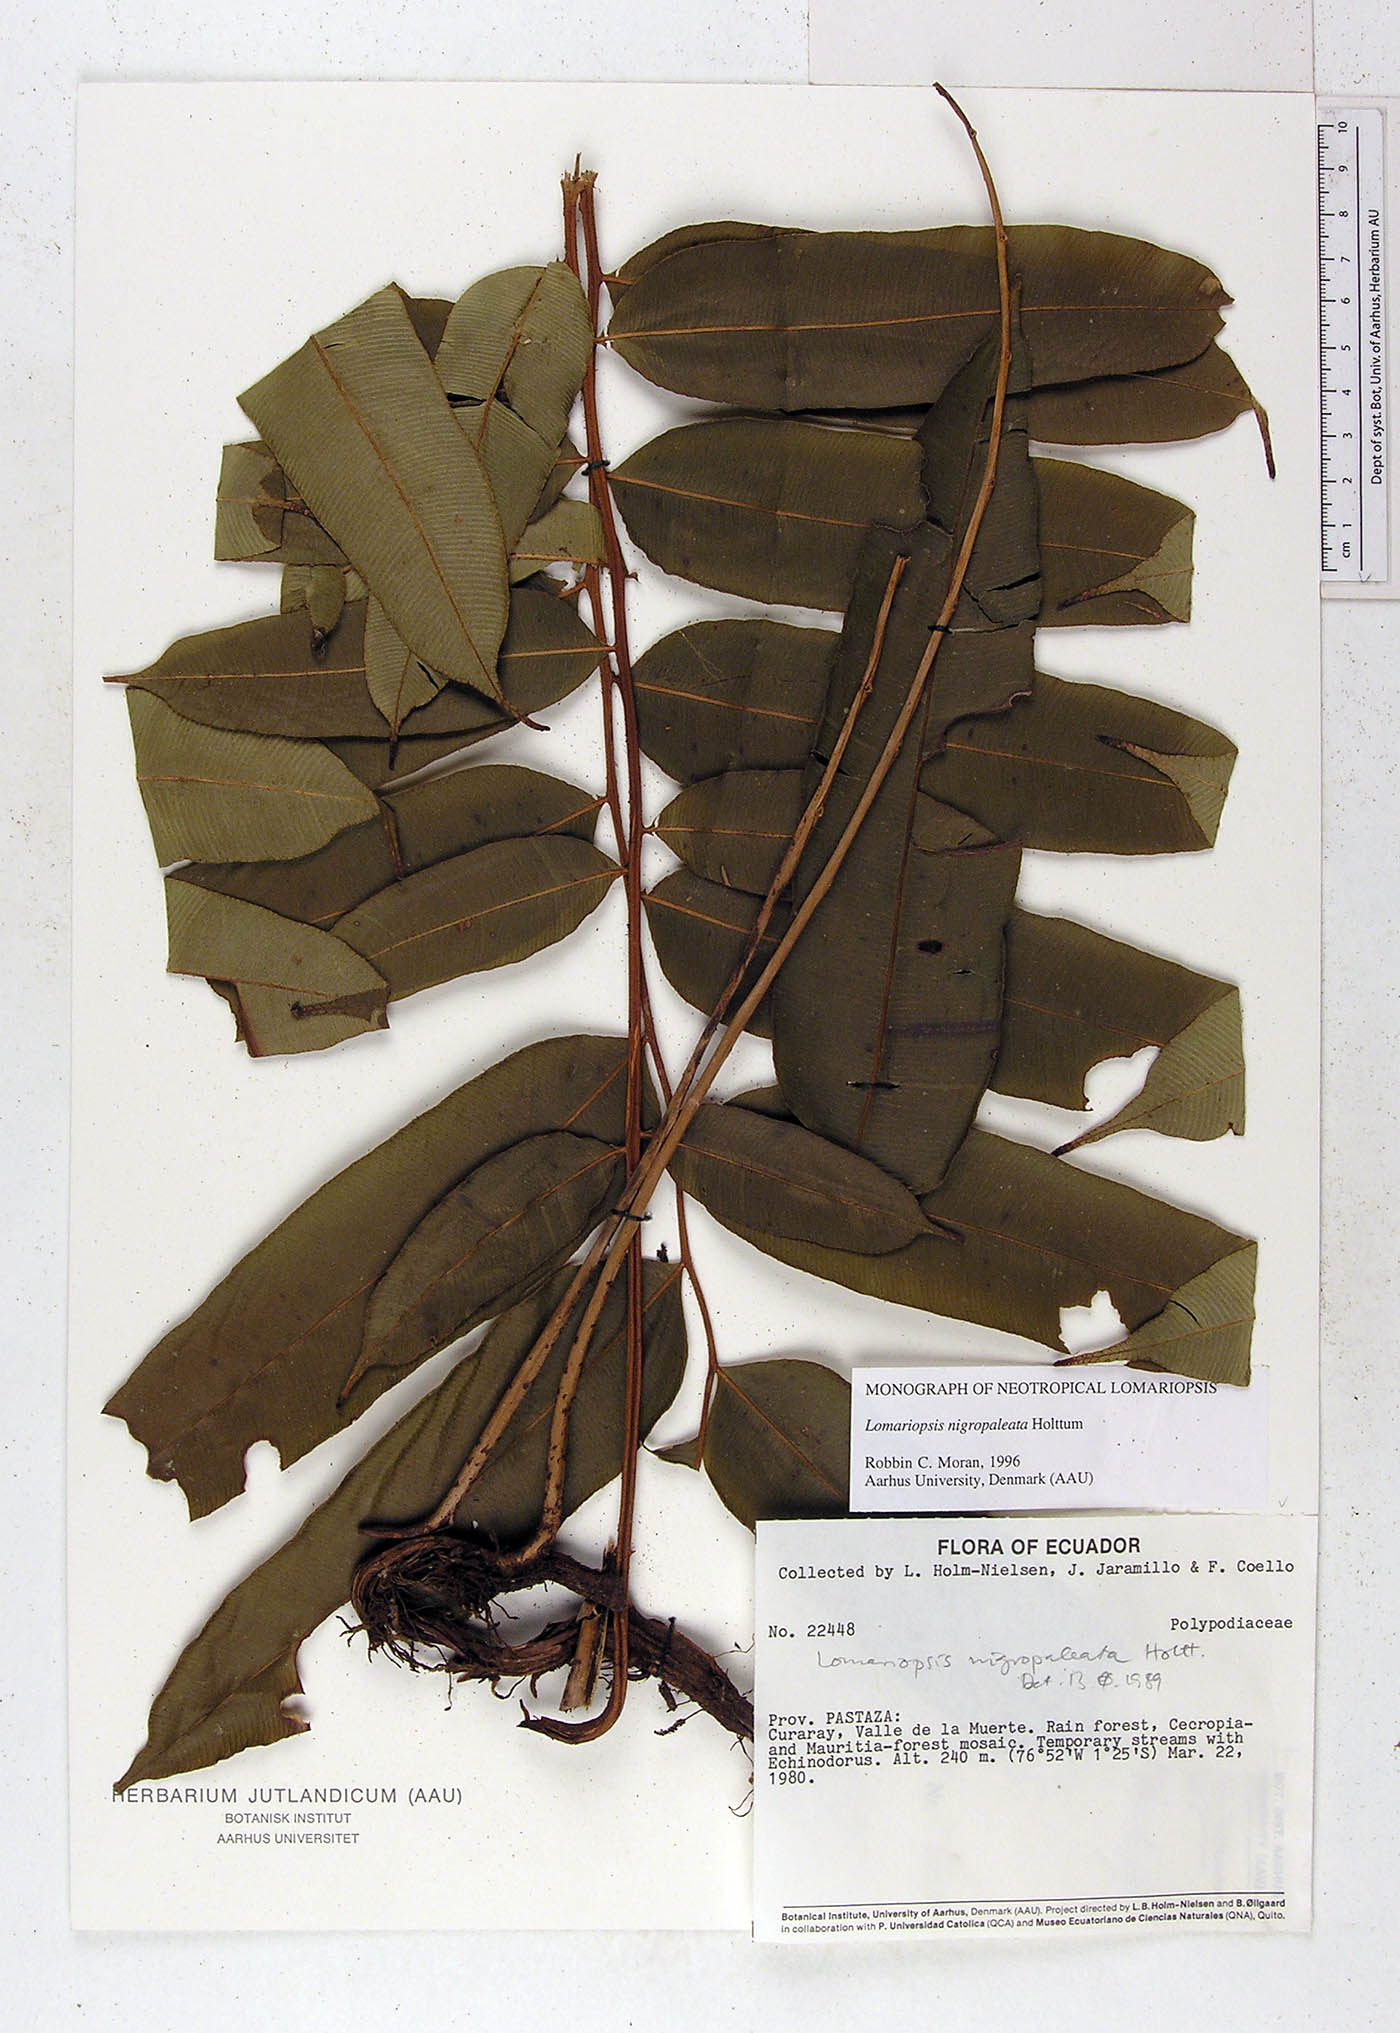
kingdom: Plantae
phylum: Tracheophyta
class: Polypodiopsida
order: Polypodiales
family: Lomariopsidaceae
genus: Lomariopsis
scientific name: Lomariopsis nigropaleata
